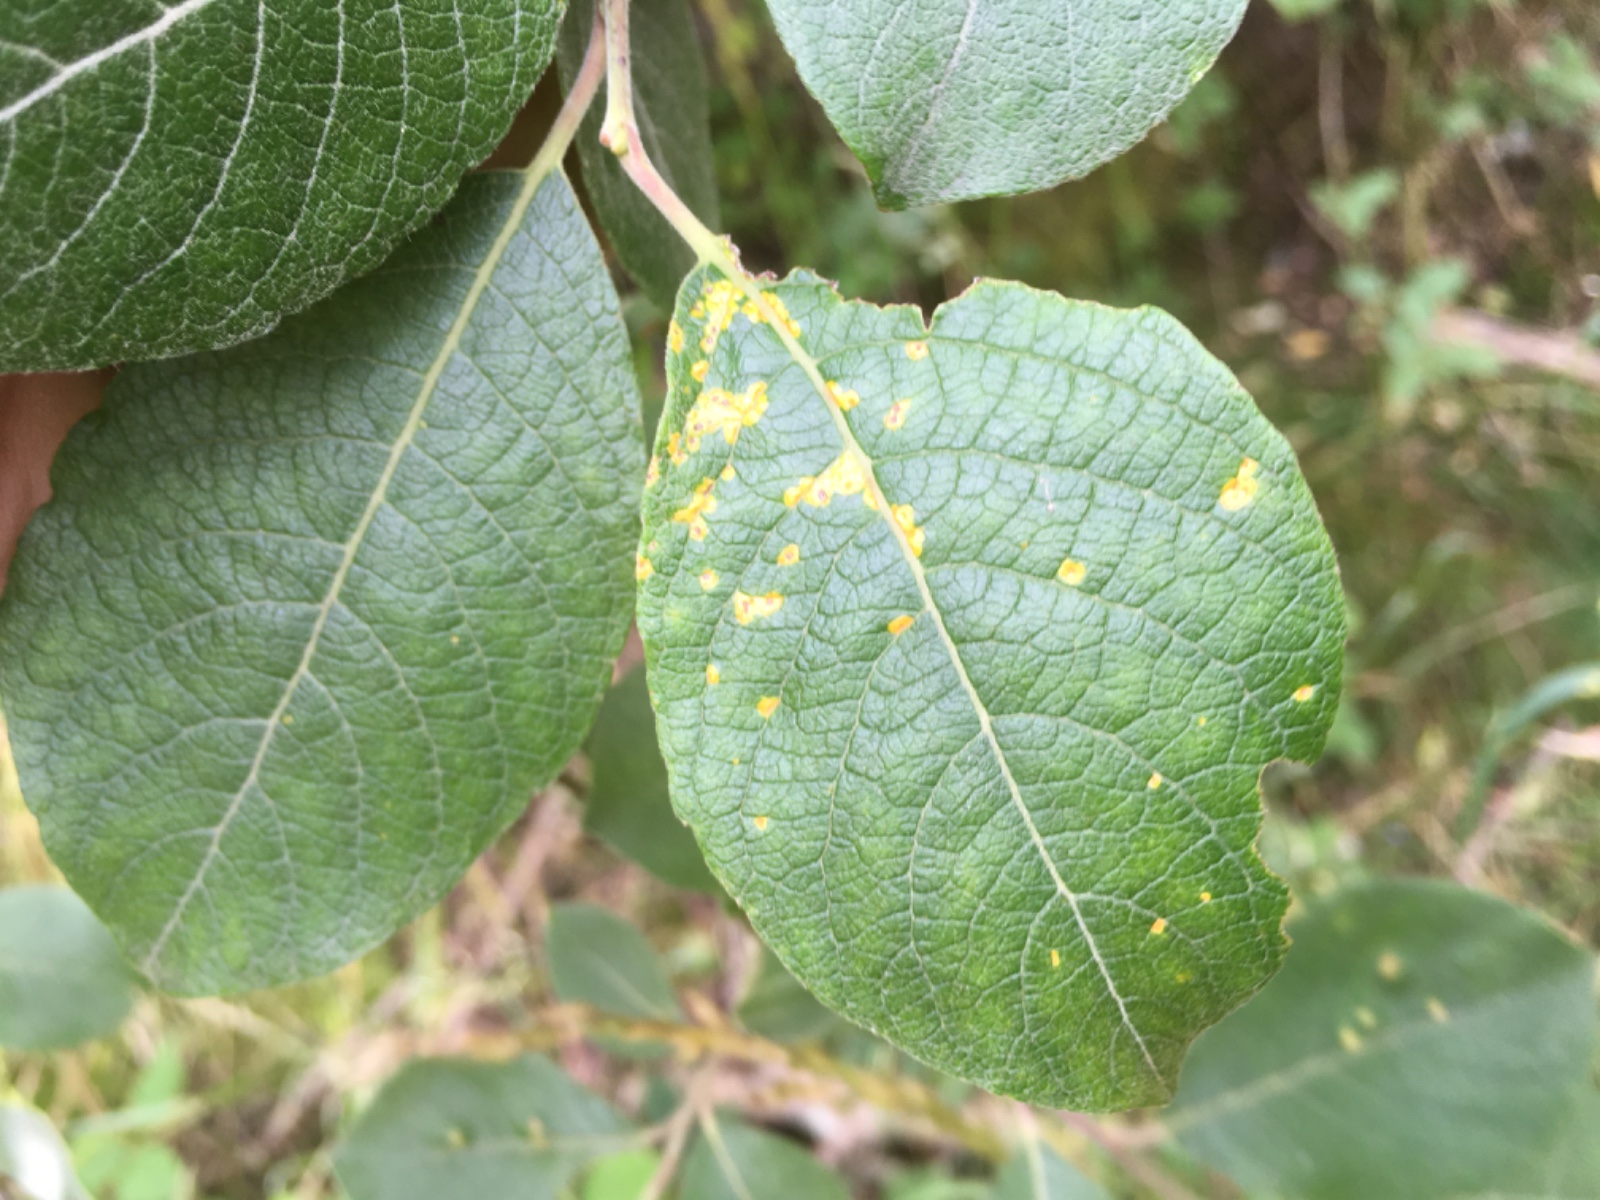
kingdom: Fungi
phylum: Basidiomycota
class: Pucciniomycetes
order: Pucciniales
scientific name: Pucciniales
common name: rustsvampeordenen
